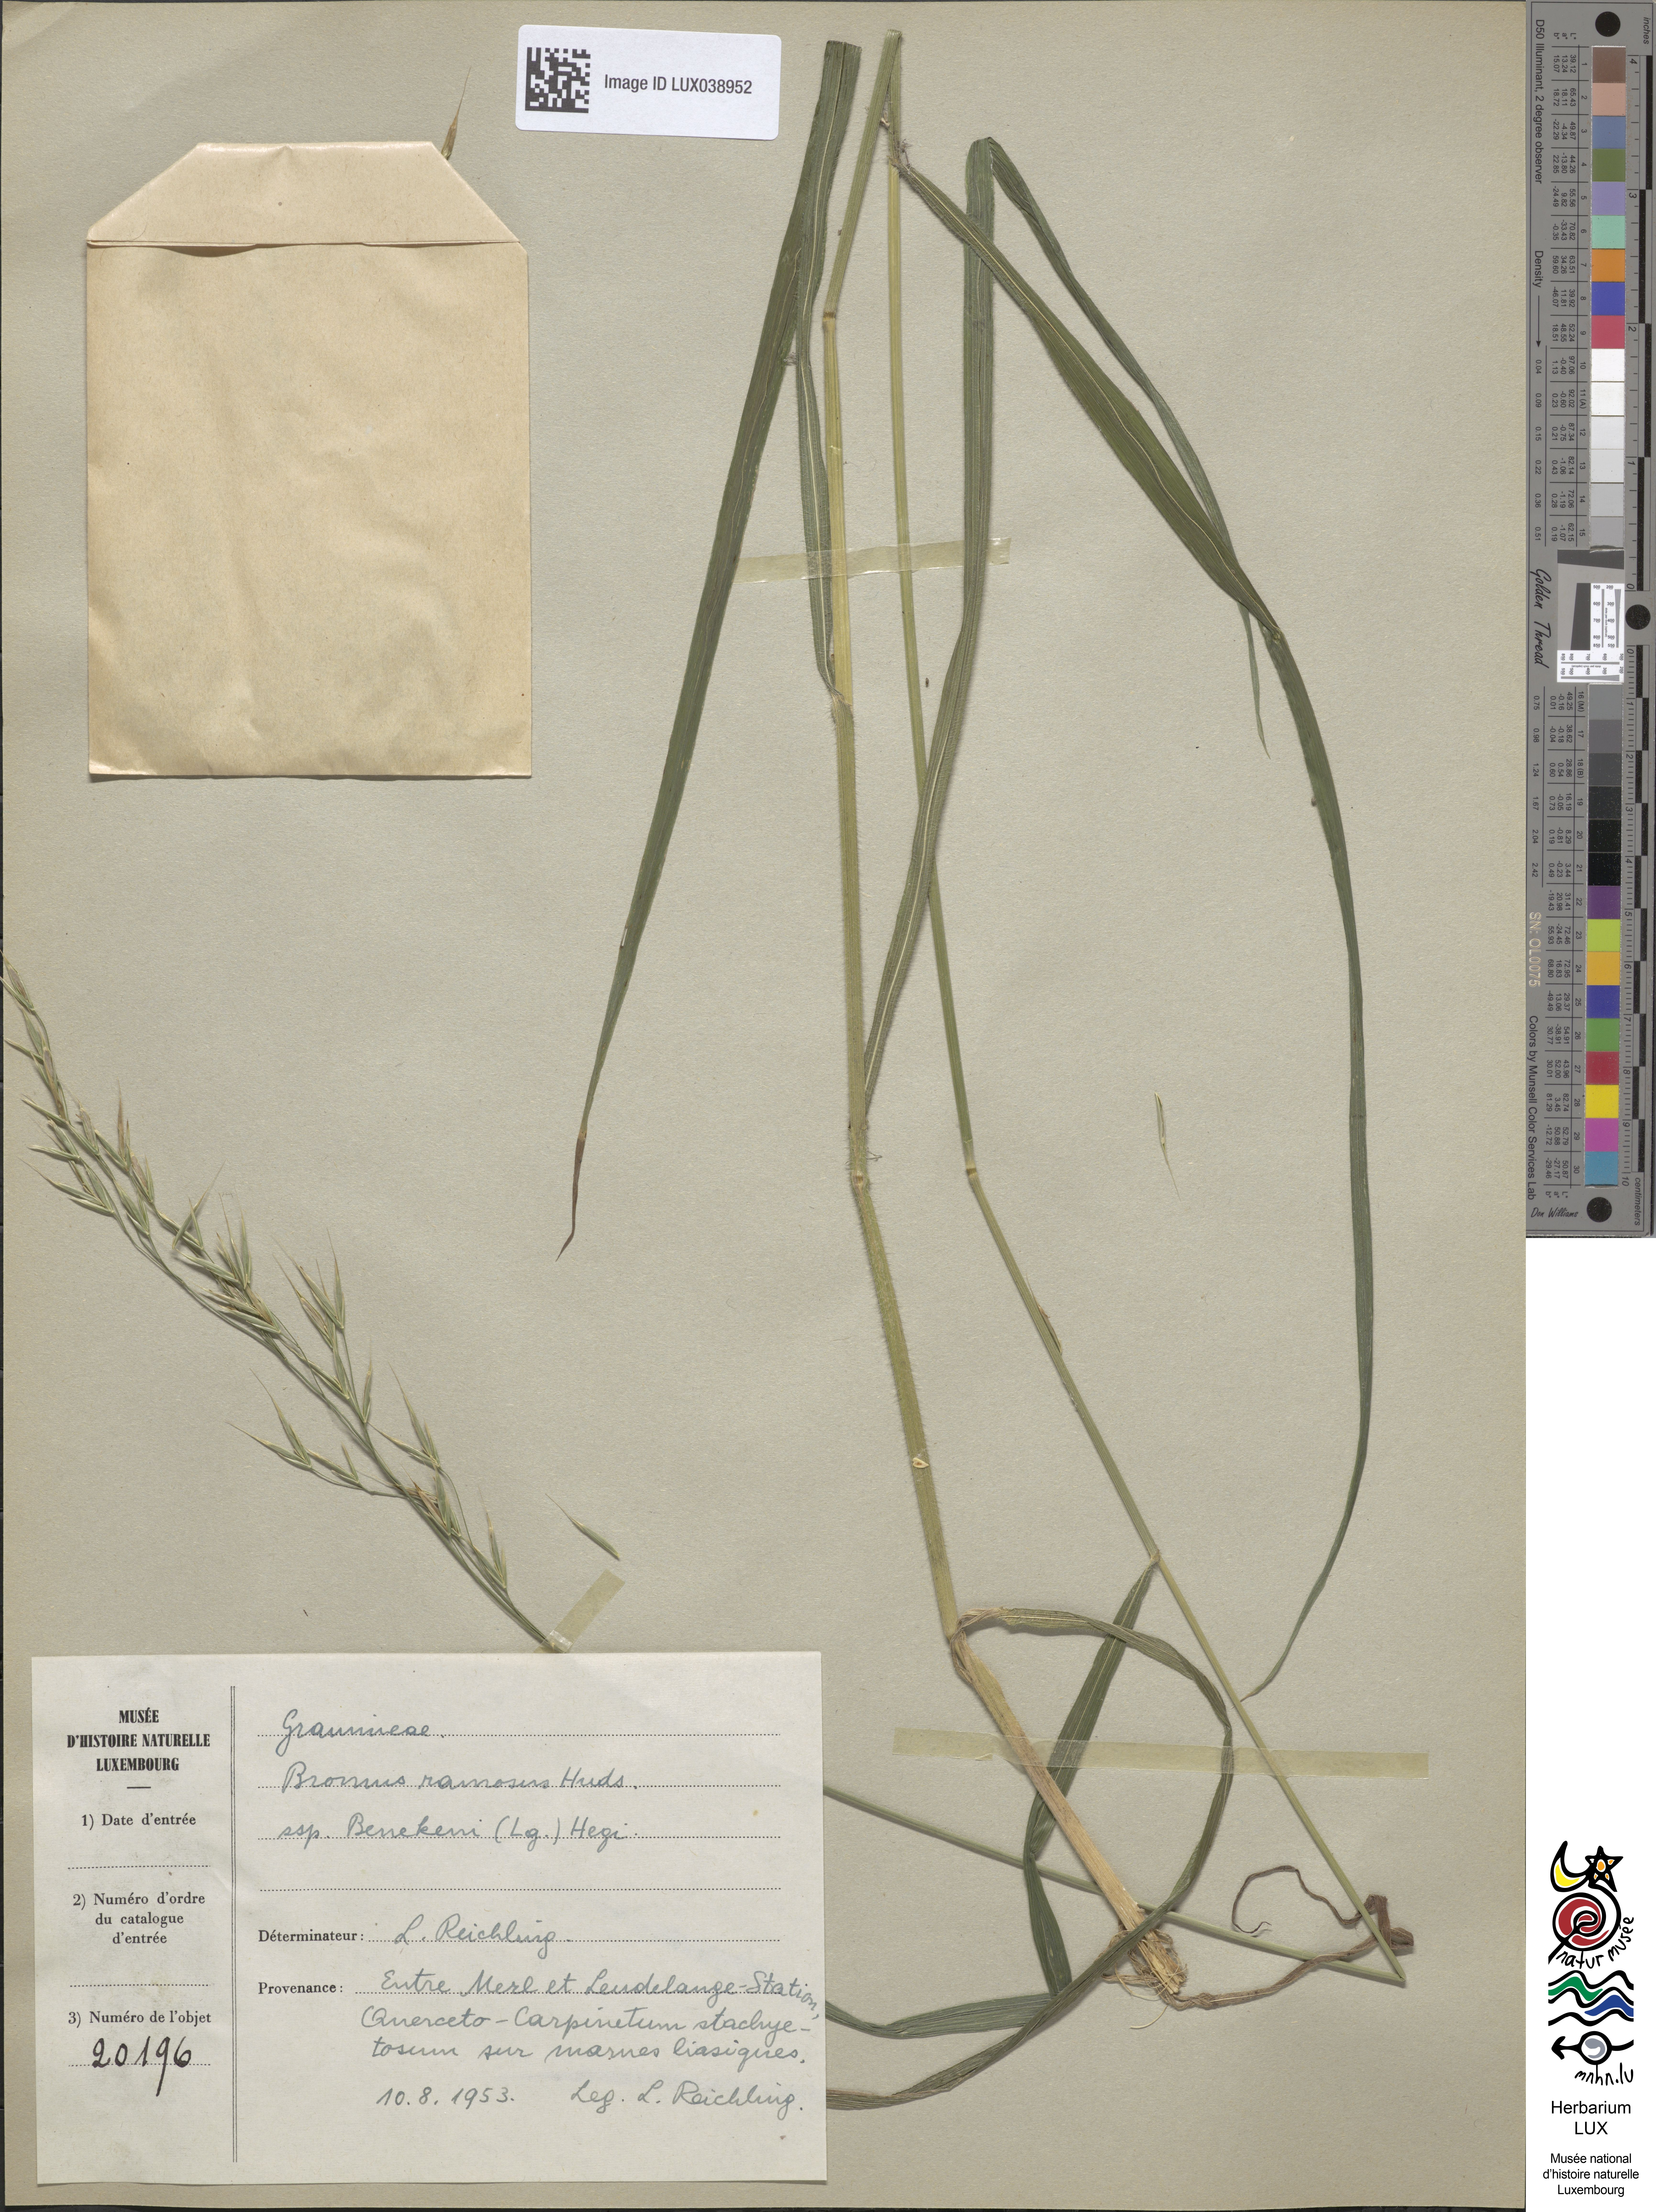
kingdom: Plantae
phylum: Tracheophyta
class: Liliopsida
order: Poales
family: Poaceae
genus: Bromus
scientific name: Bromus benekenii
